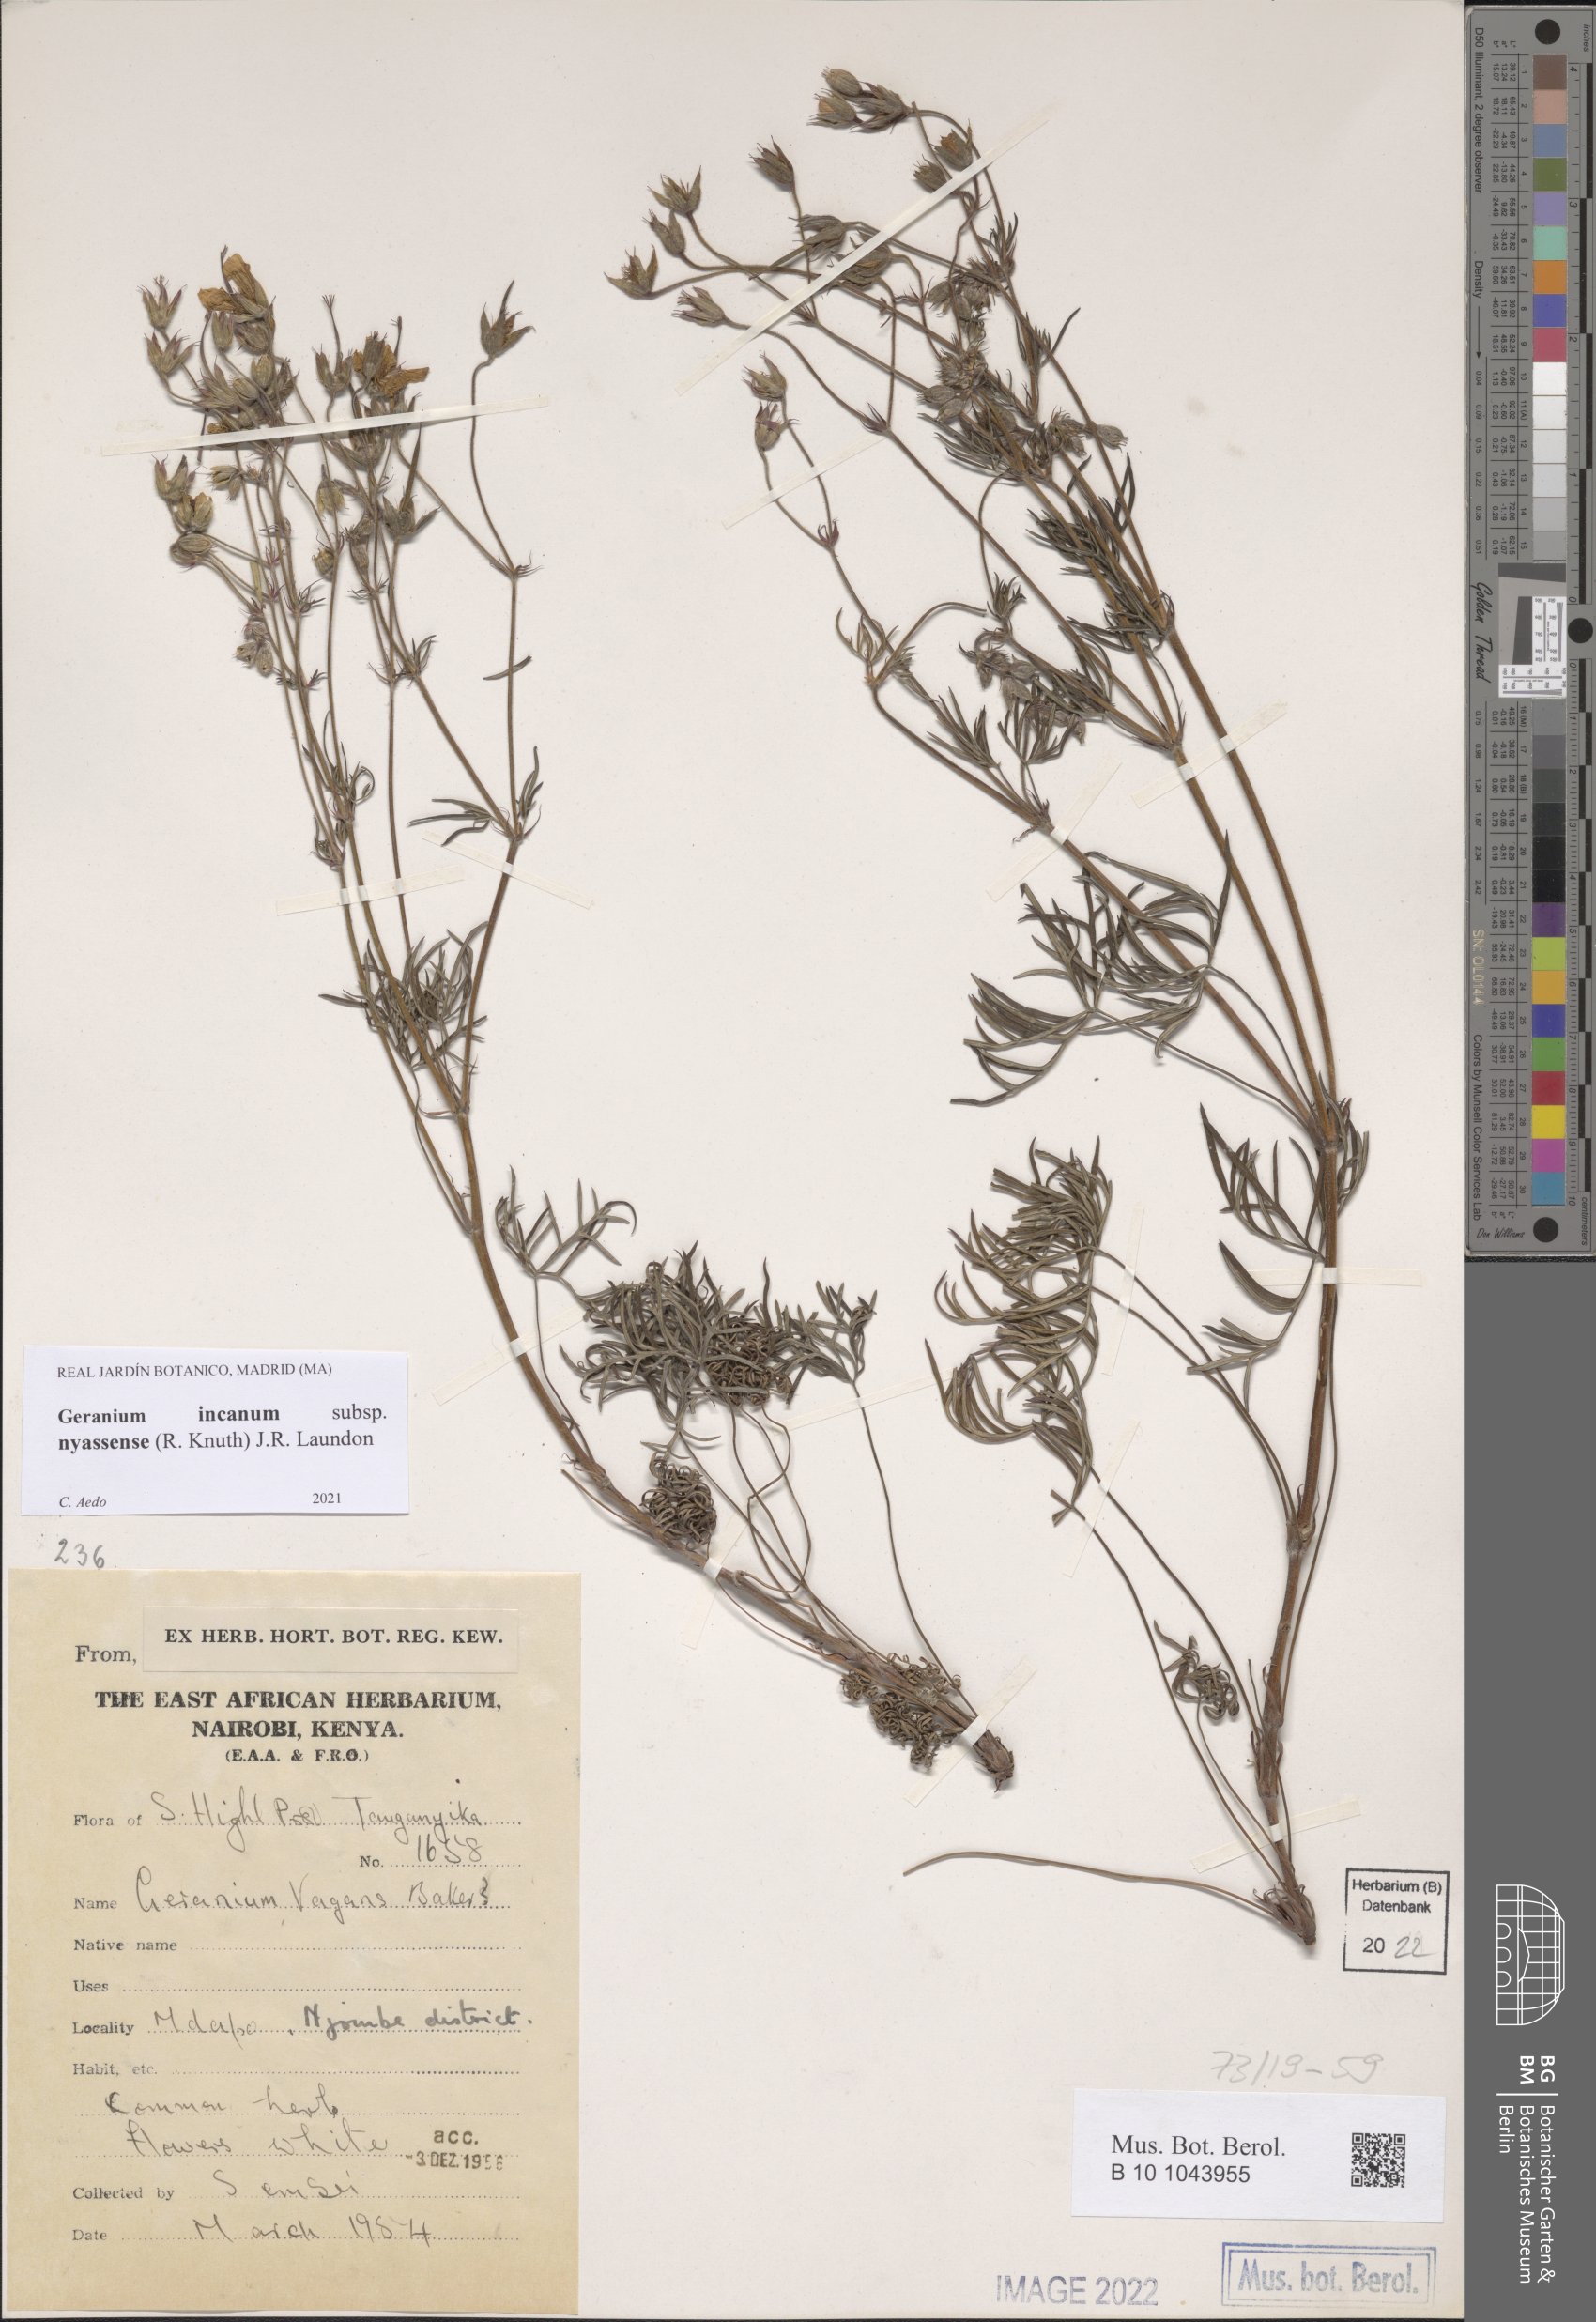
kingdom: Plantae
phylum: Tracheophyta
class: Magnoliopsida
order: Geraniales
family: Geraniaceae
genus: Geranium
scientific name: Geranium nyassense
